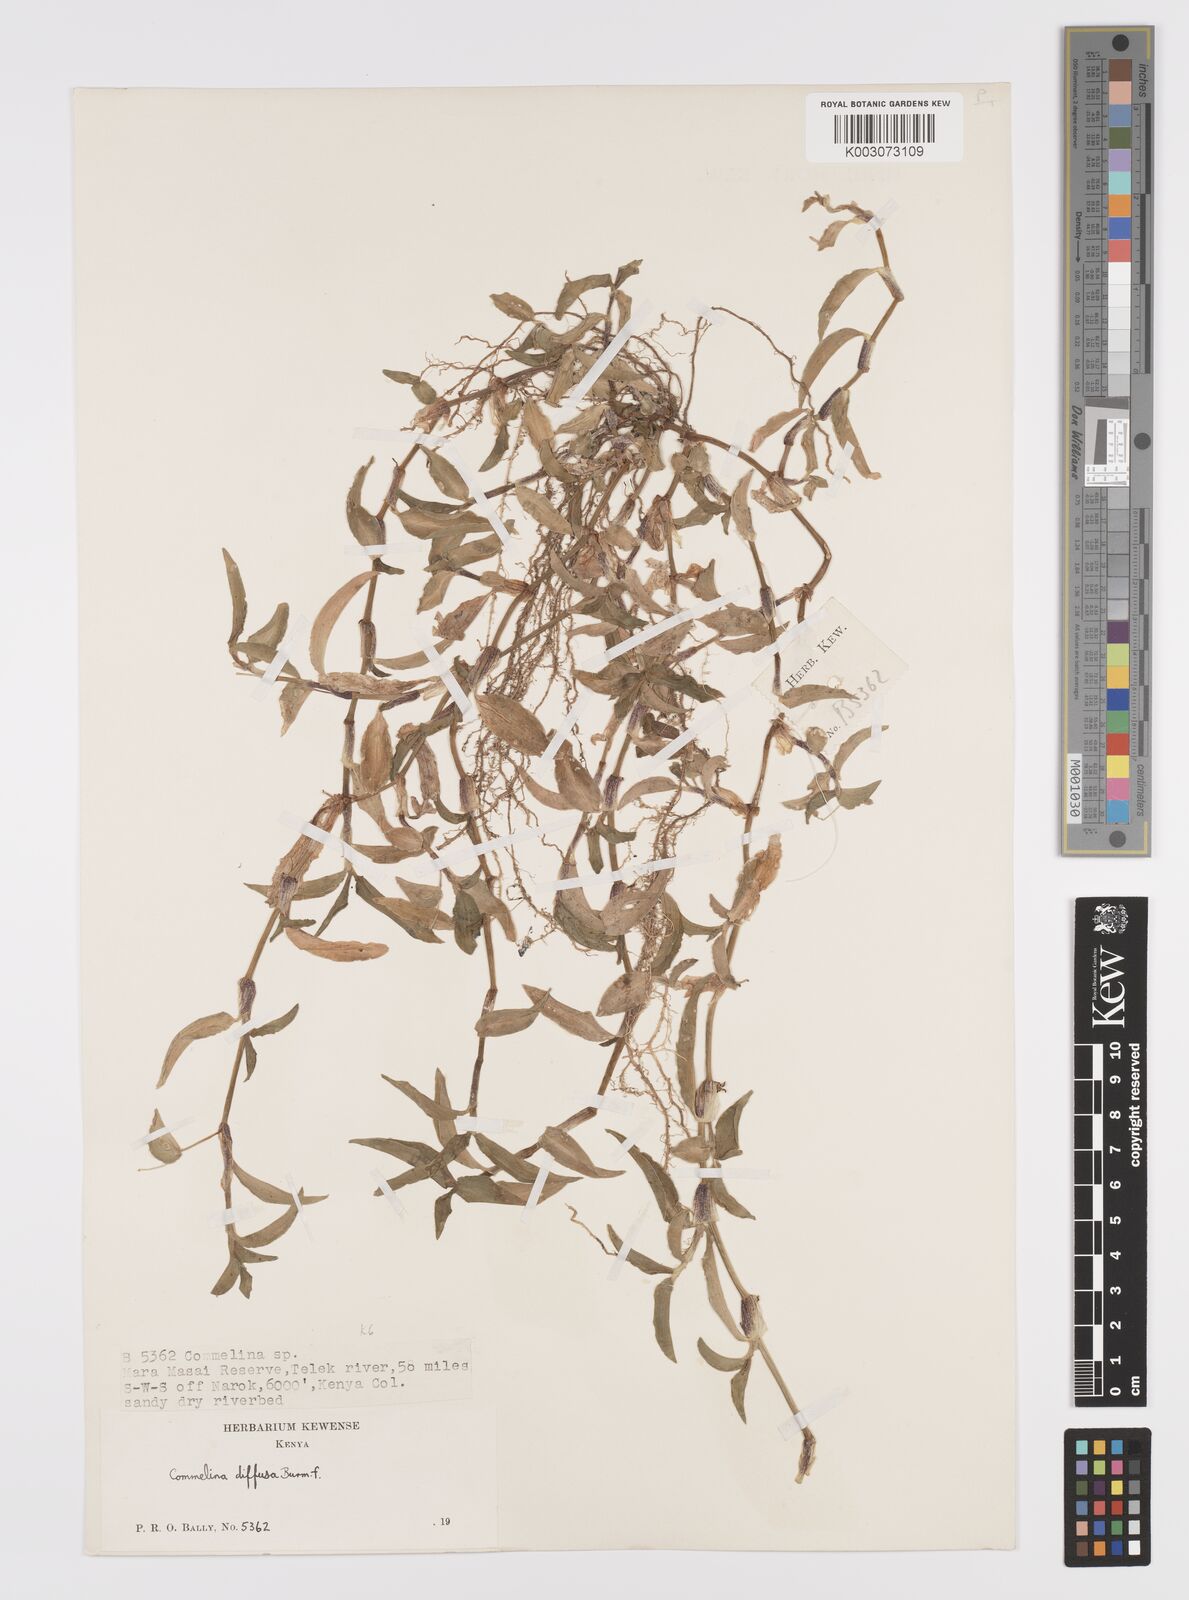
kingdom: Plantae
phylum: Tracheophyta
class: Liliopsida
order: Commelinales
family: Commelinaceae
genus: Commelina
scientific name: Commelina diffusa
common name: Climbing dayflower
